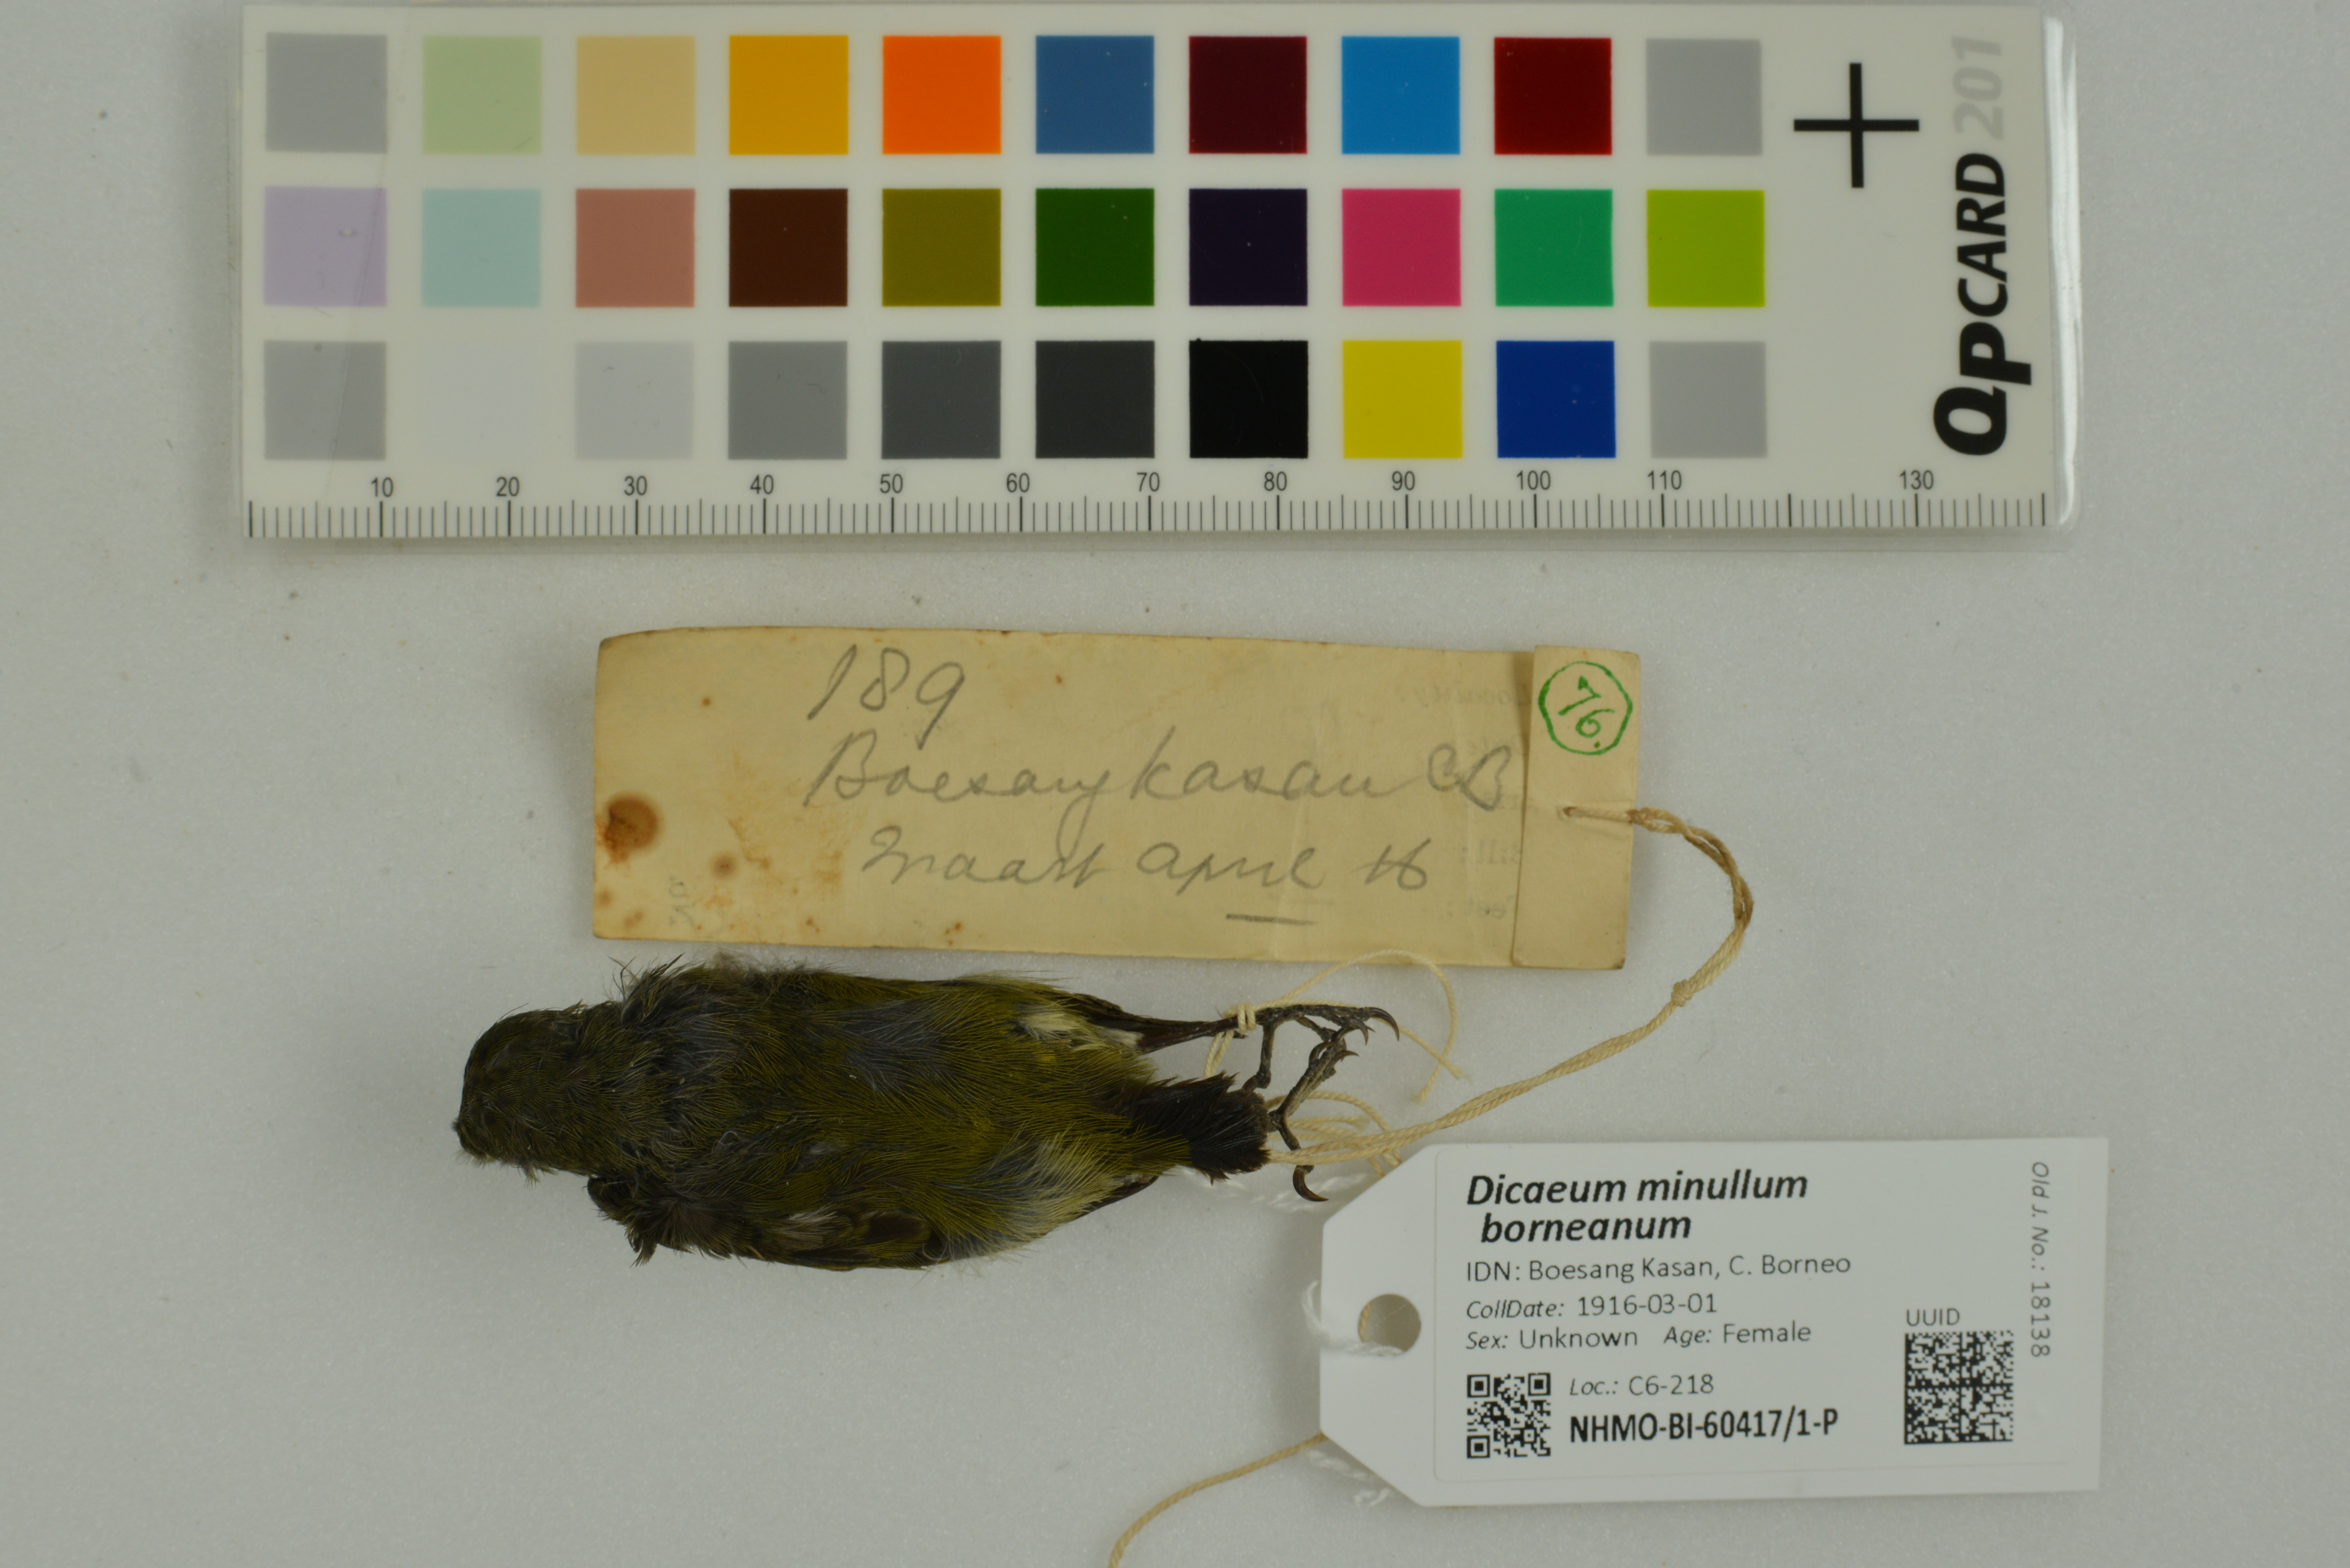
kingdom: Animalia
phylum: Chordata
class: Aves
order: Passeriformes
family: Dicaeidae
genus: Dicaeum
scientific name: Dicaeum minullum
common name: Plain flowerpecker
